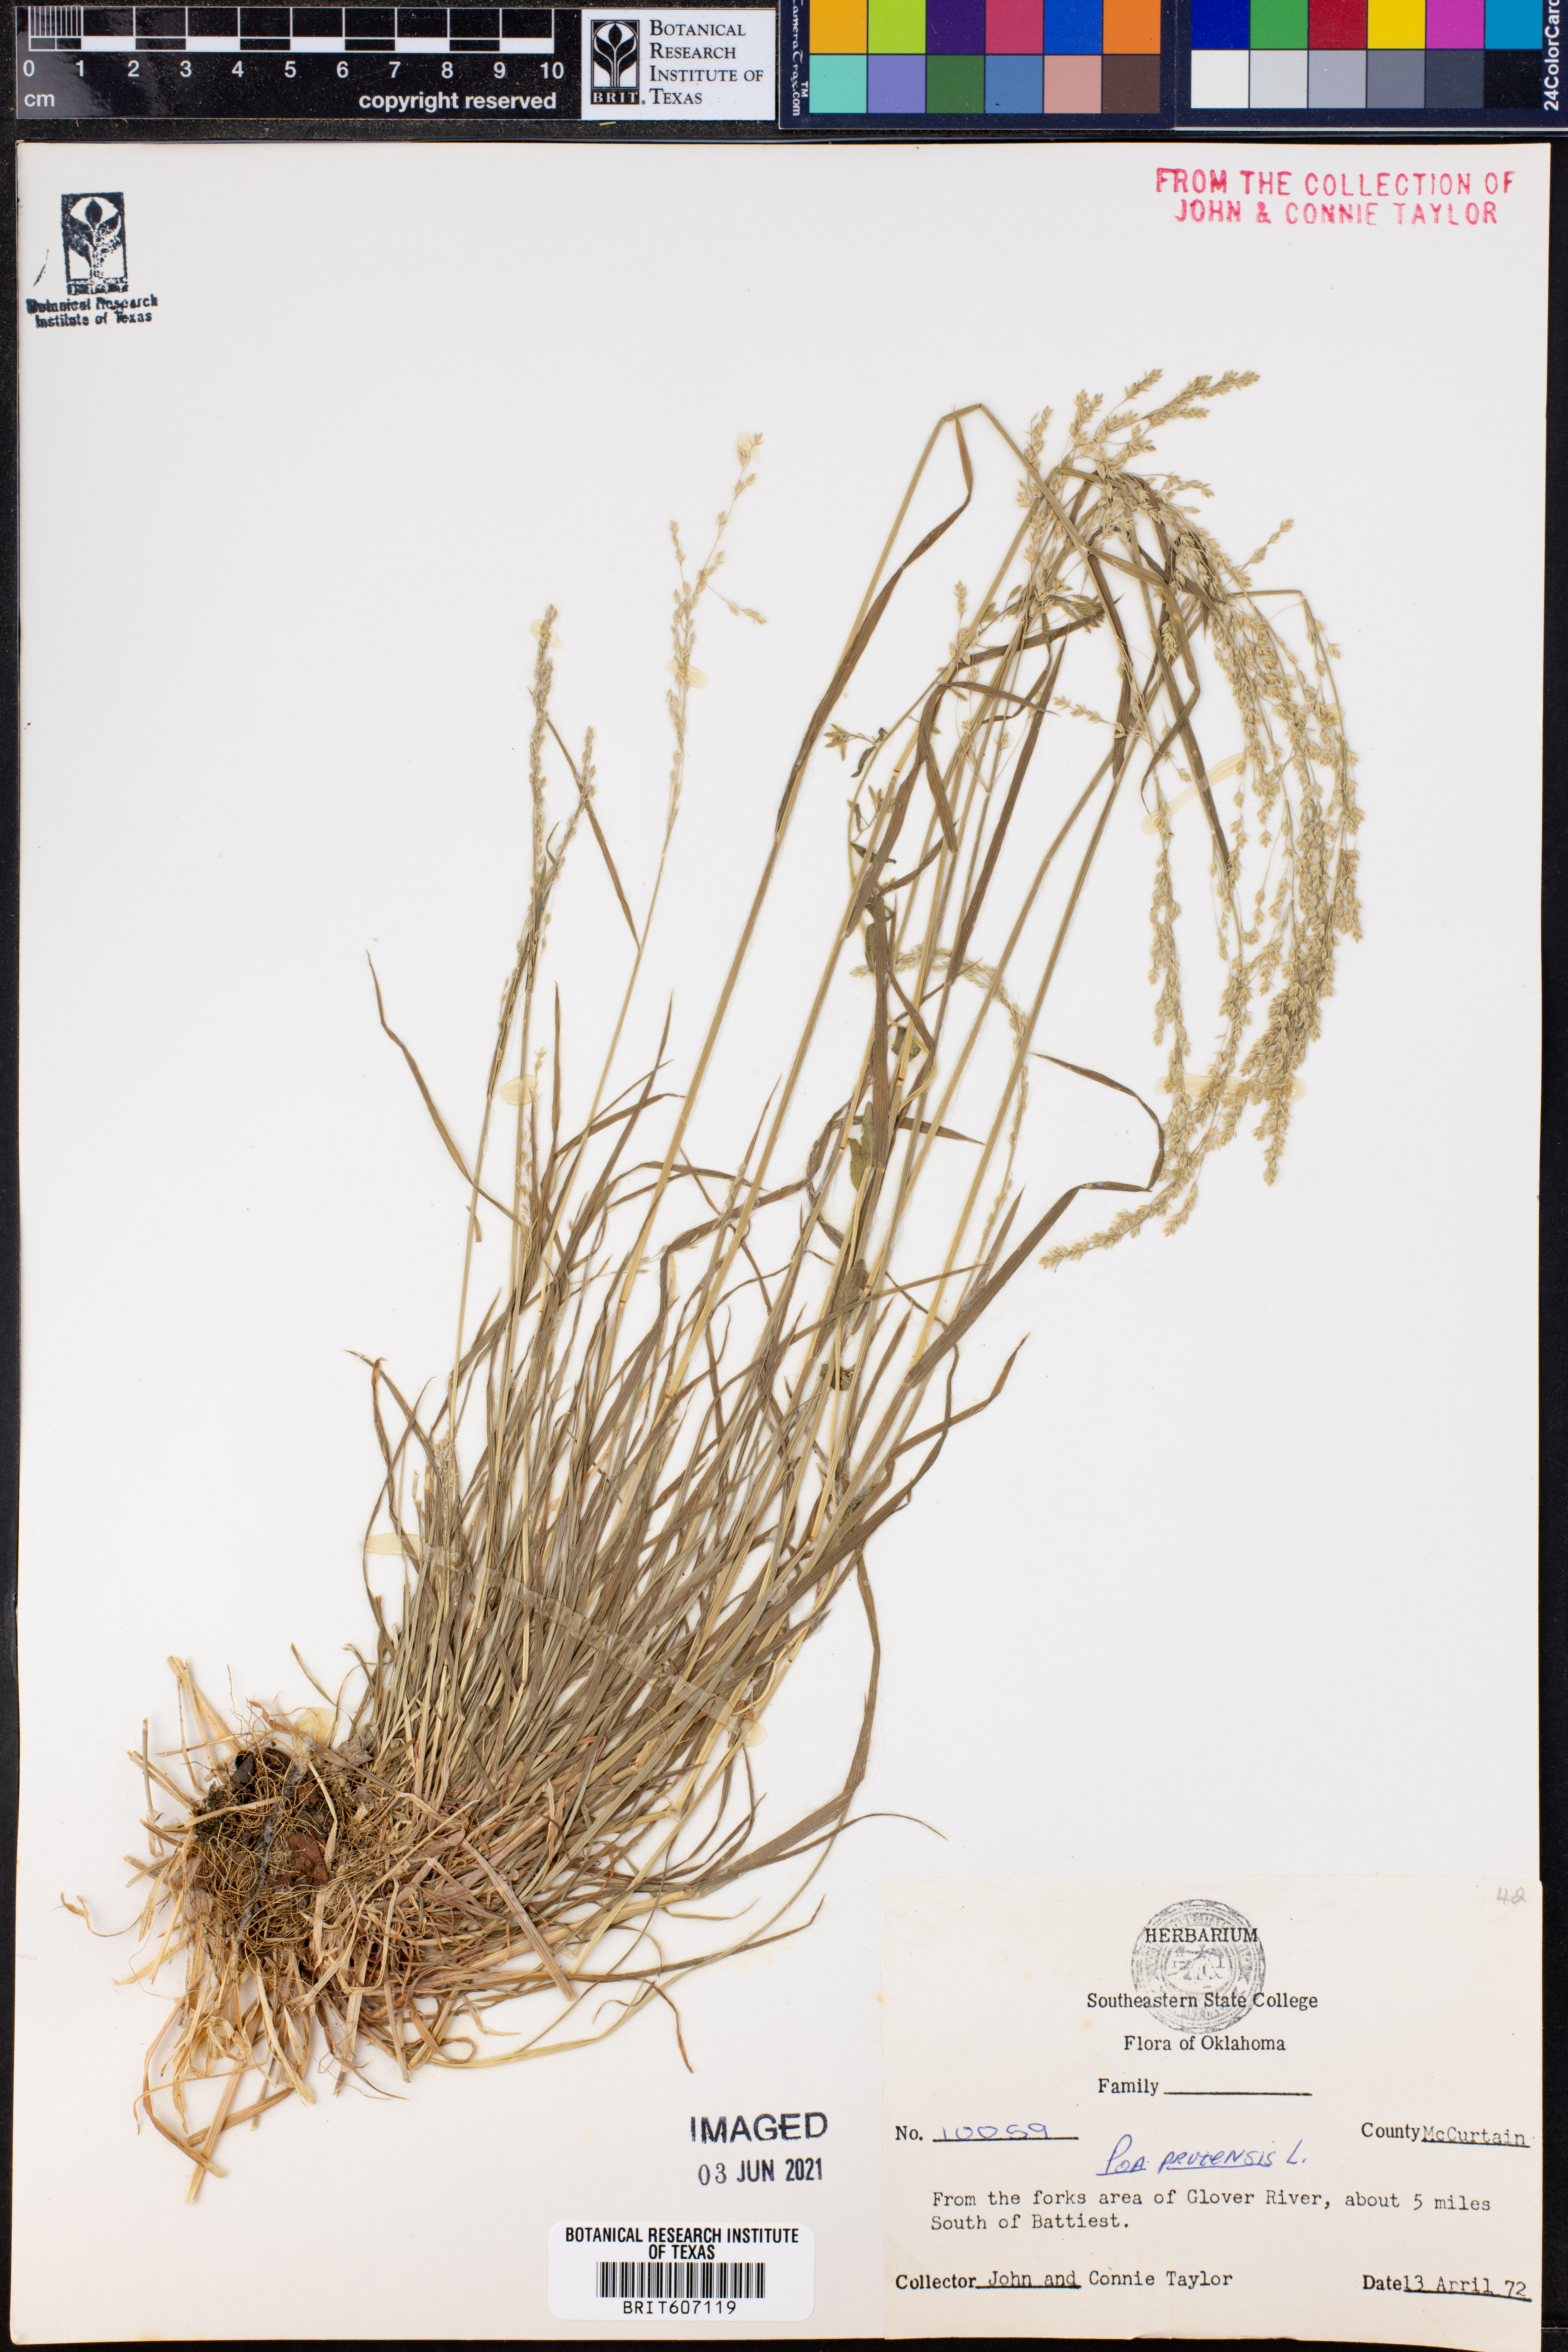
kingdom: Plantae
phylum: Tracheophyta
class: Liliopsida
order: Poales
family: Poaceae
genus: Poa
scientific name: Poa pratensis
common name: Kentucky bluegrass
